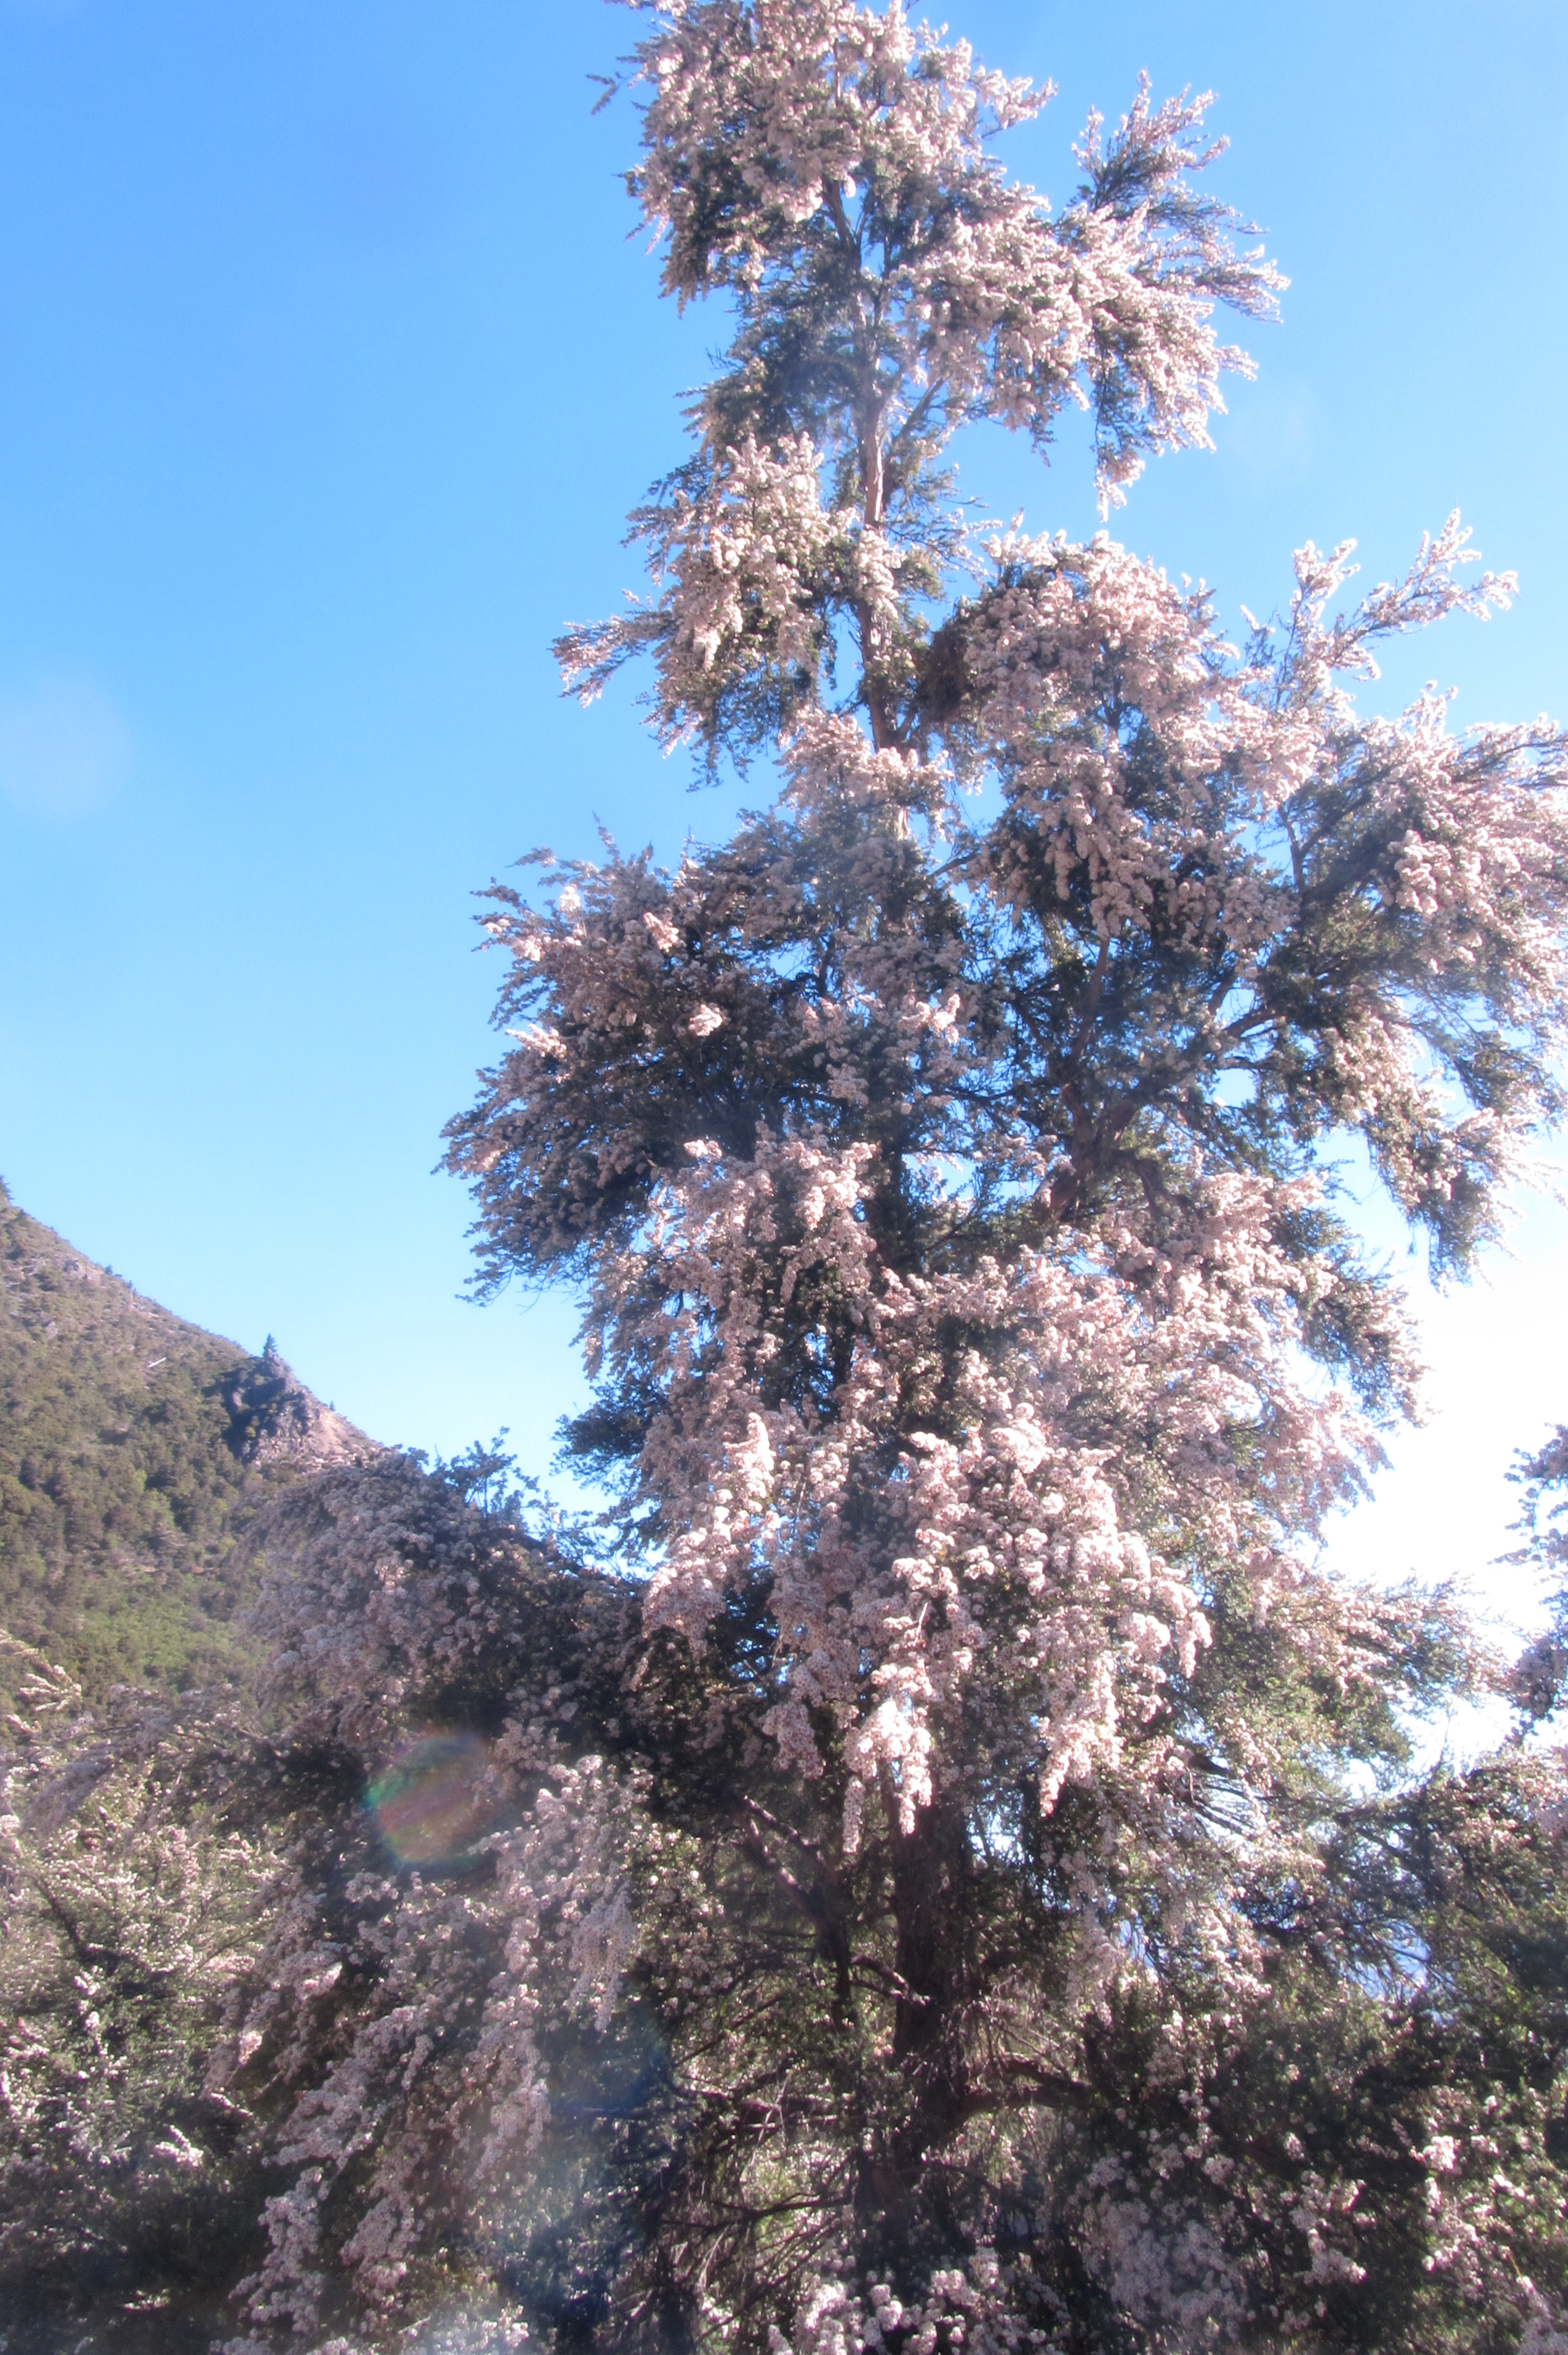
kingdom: Plantae
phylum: Tracheophyta
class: Magnoliopsida
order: Myrtales
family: Myrtaceae
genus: Kunzea
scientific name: Kunzea serotina
